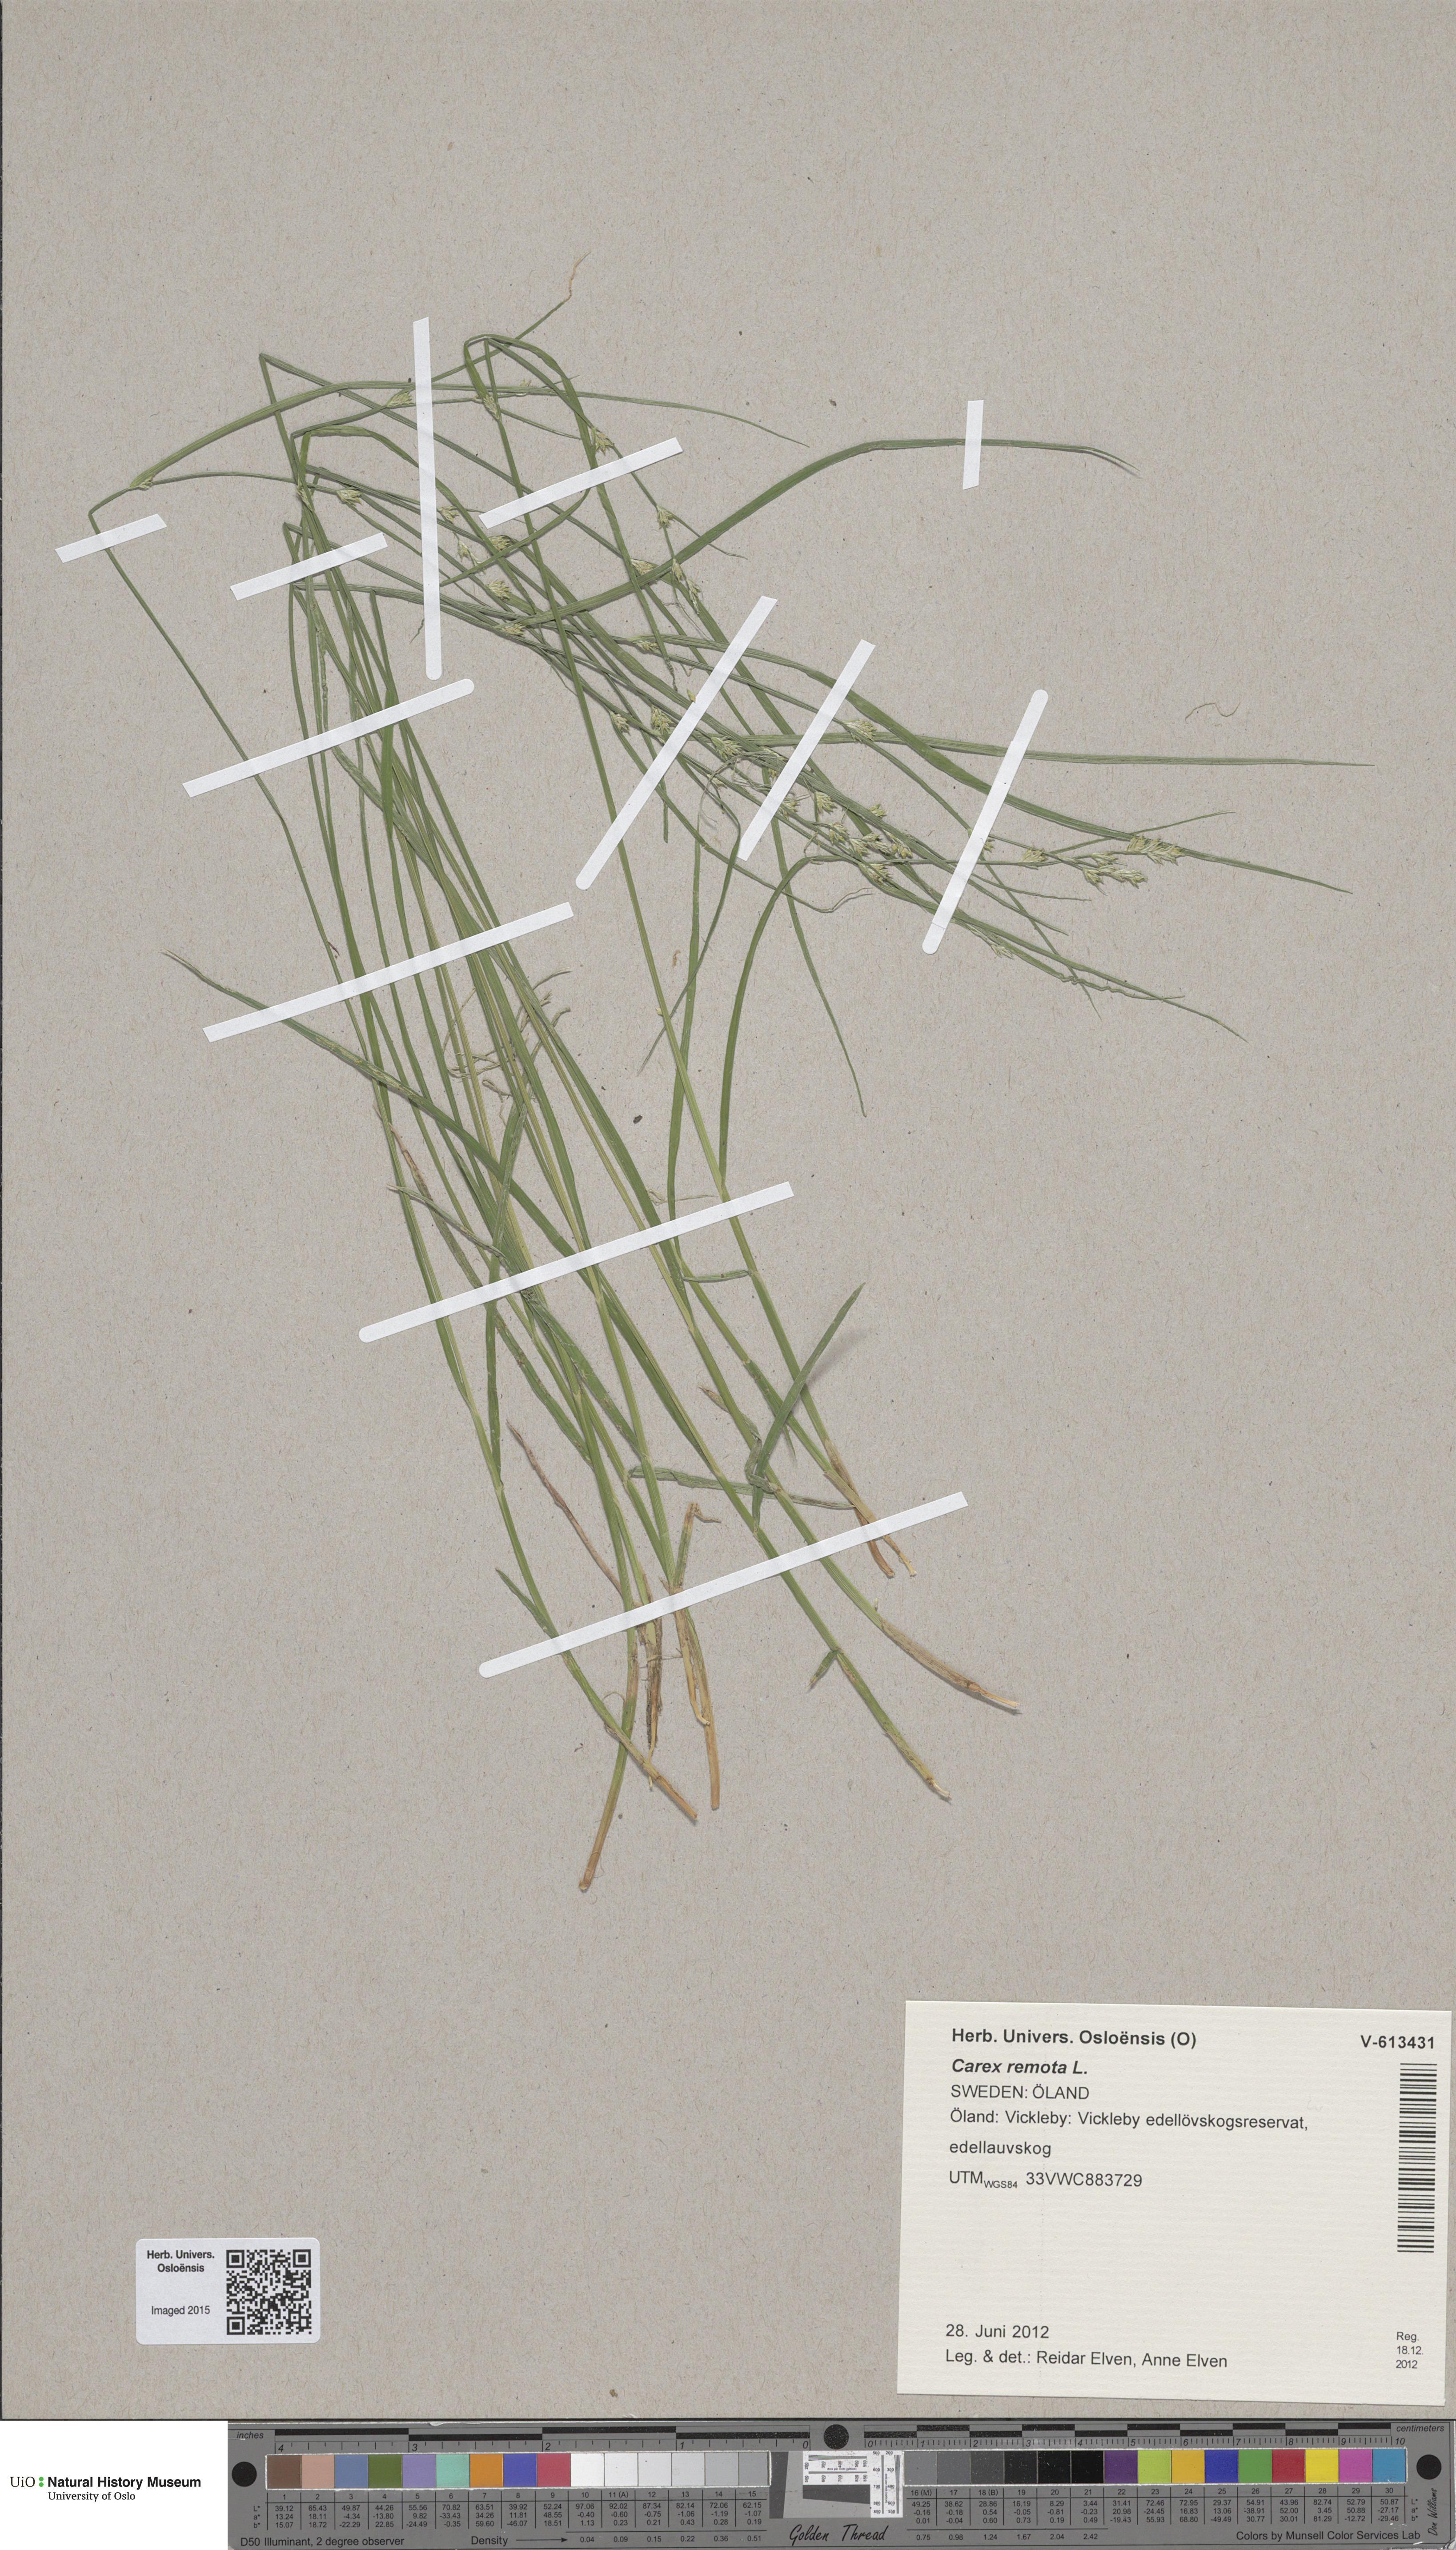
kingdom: Plantae
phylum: Tracheophyta
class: Liliopsida
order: Poales
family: Cyperaceae
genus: Carex
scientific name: Carex remota
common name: Remote sedge
